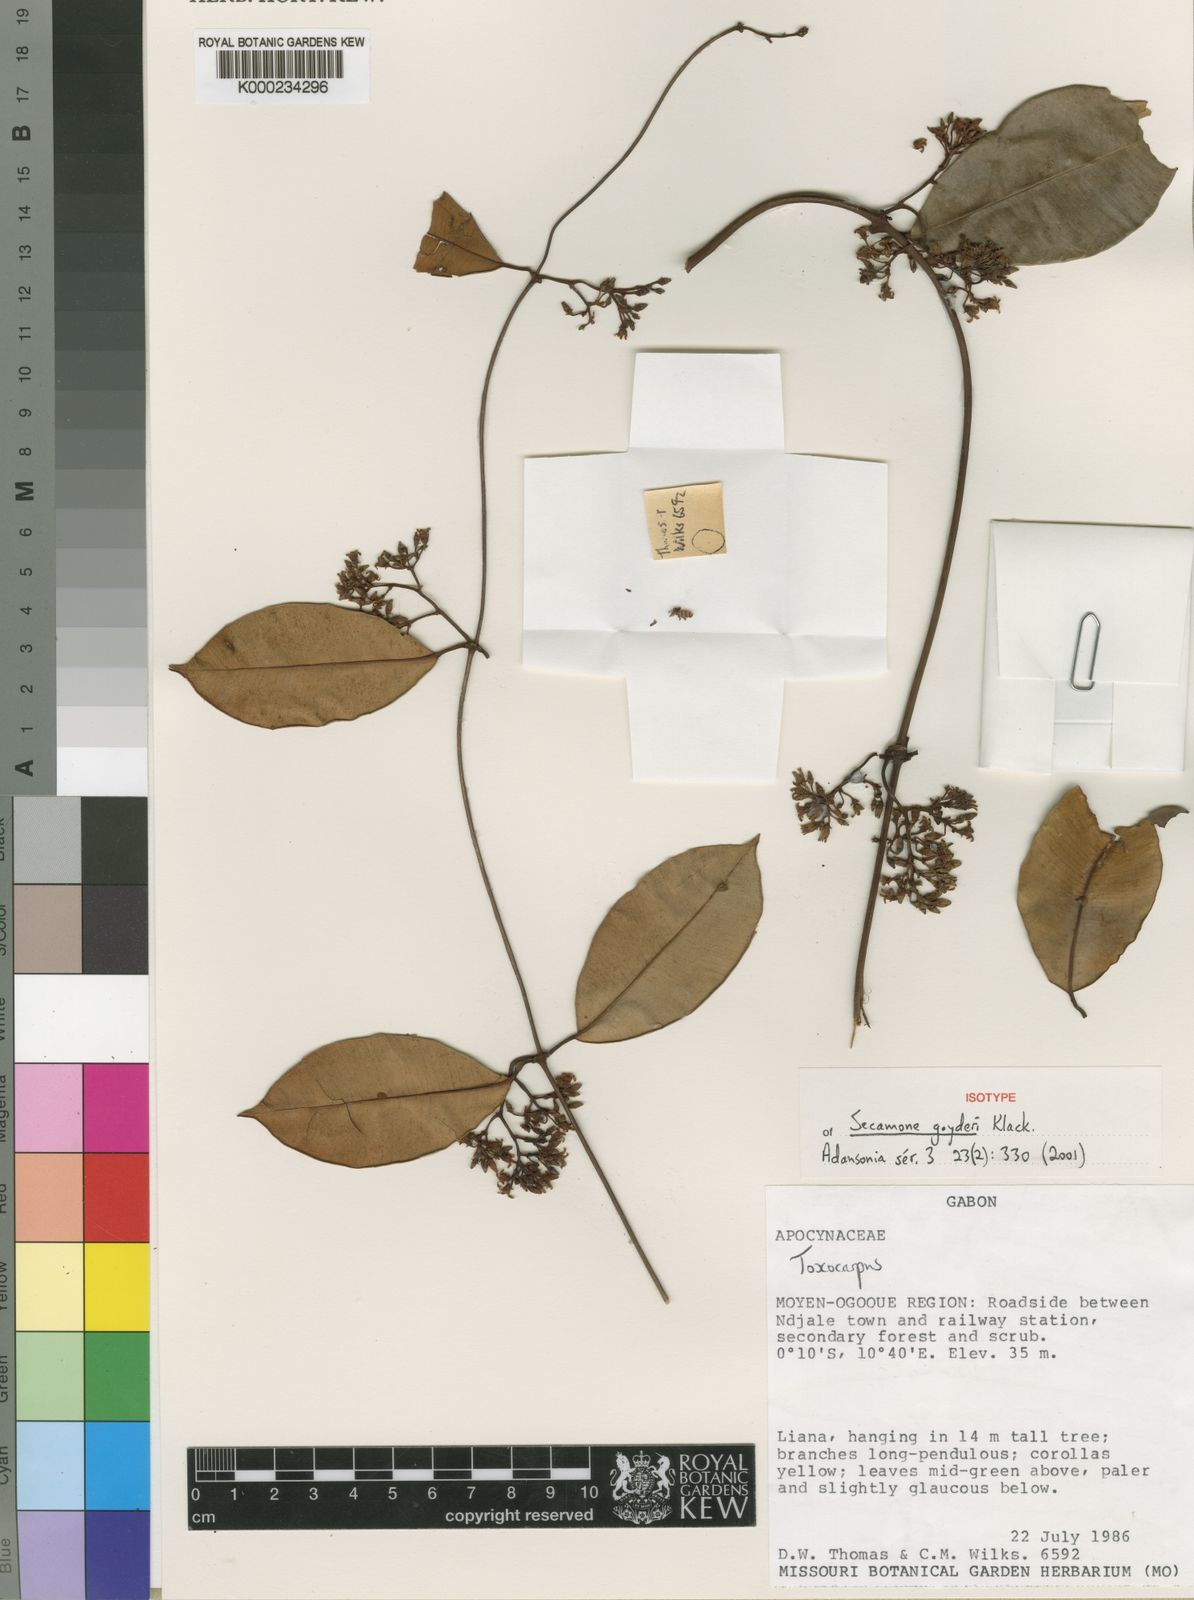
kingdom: Plantae
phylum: Tracheophyta
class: Magnoliopsida
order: Gentianales
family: Apocynaceae
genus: Secamone
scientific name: Secamone goyderi
